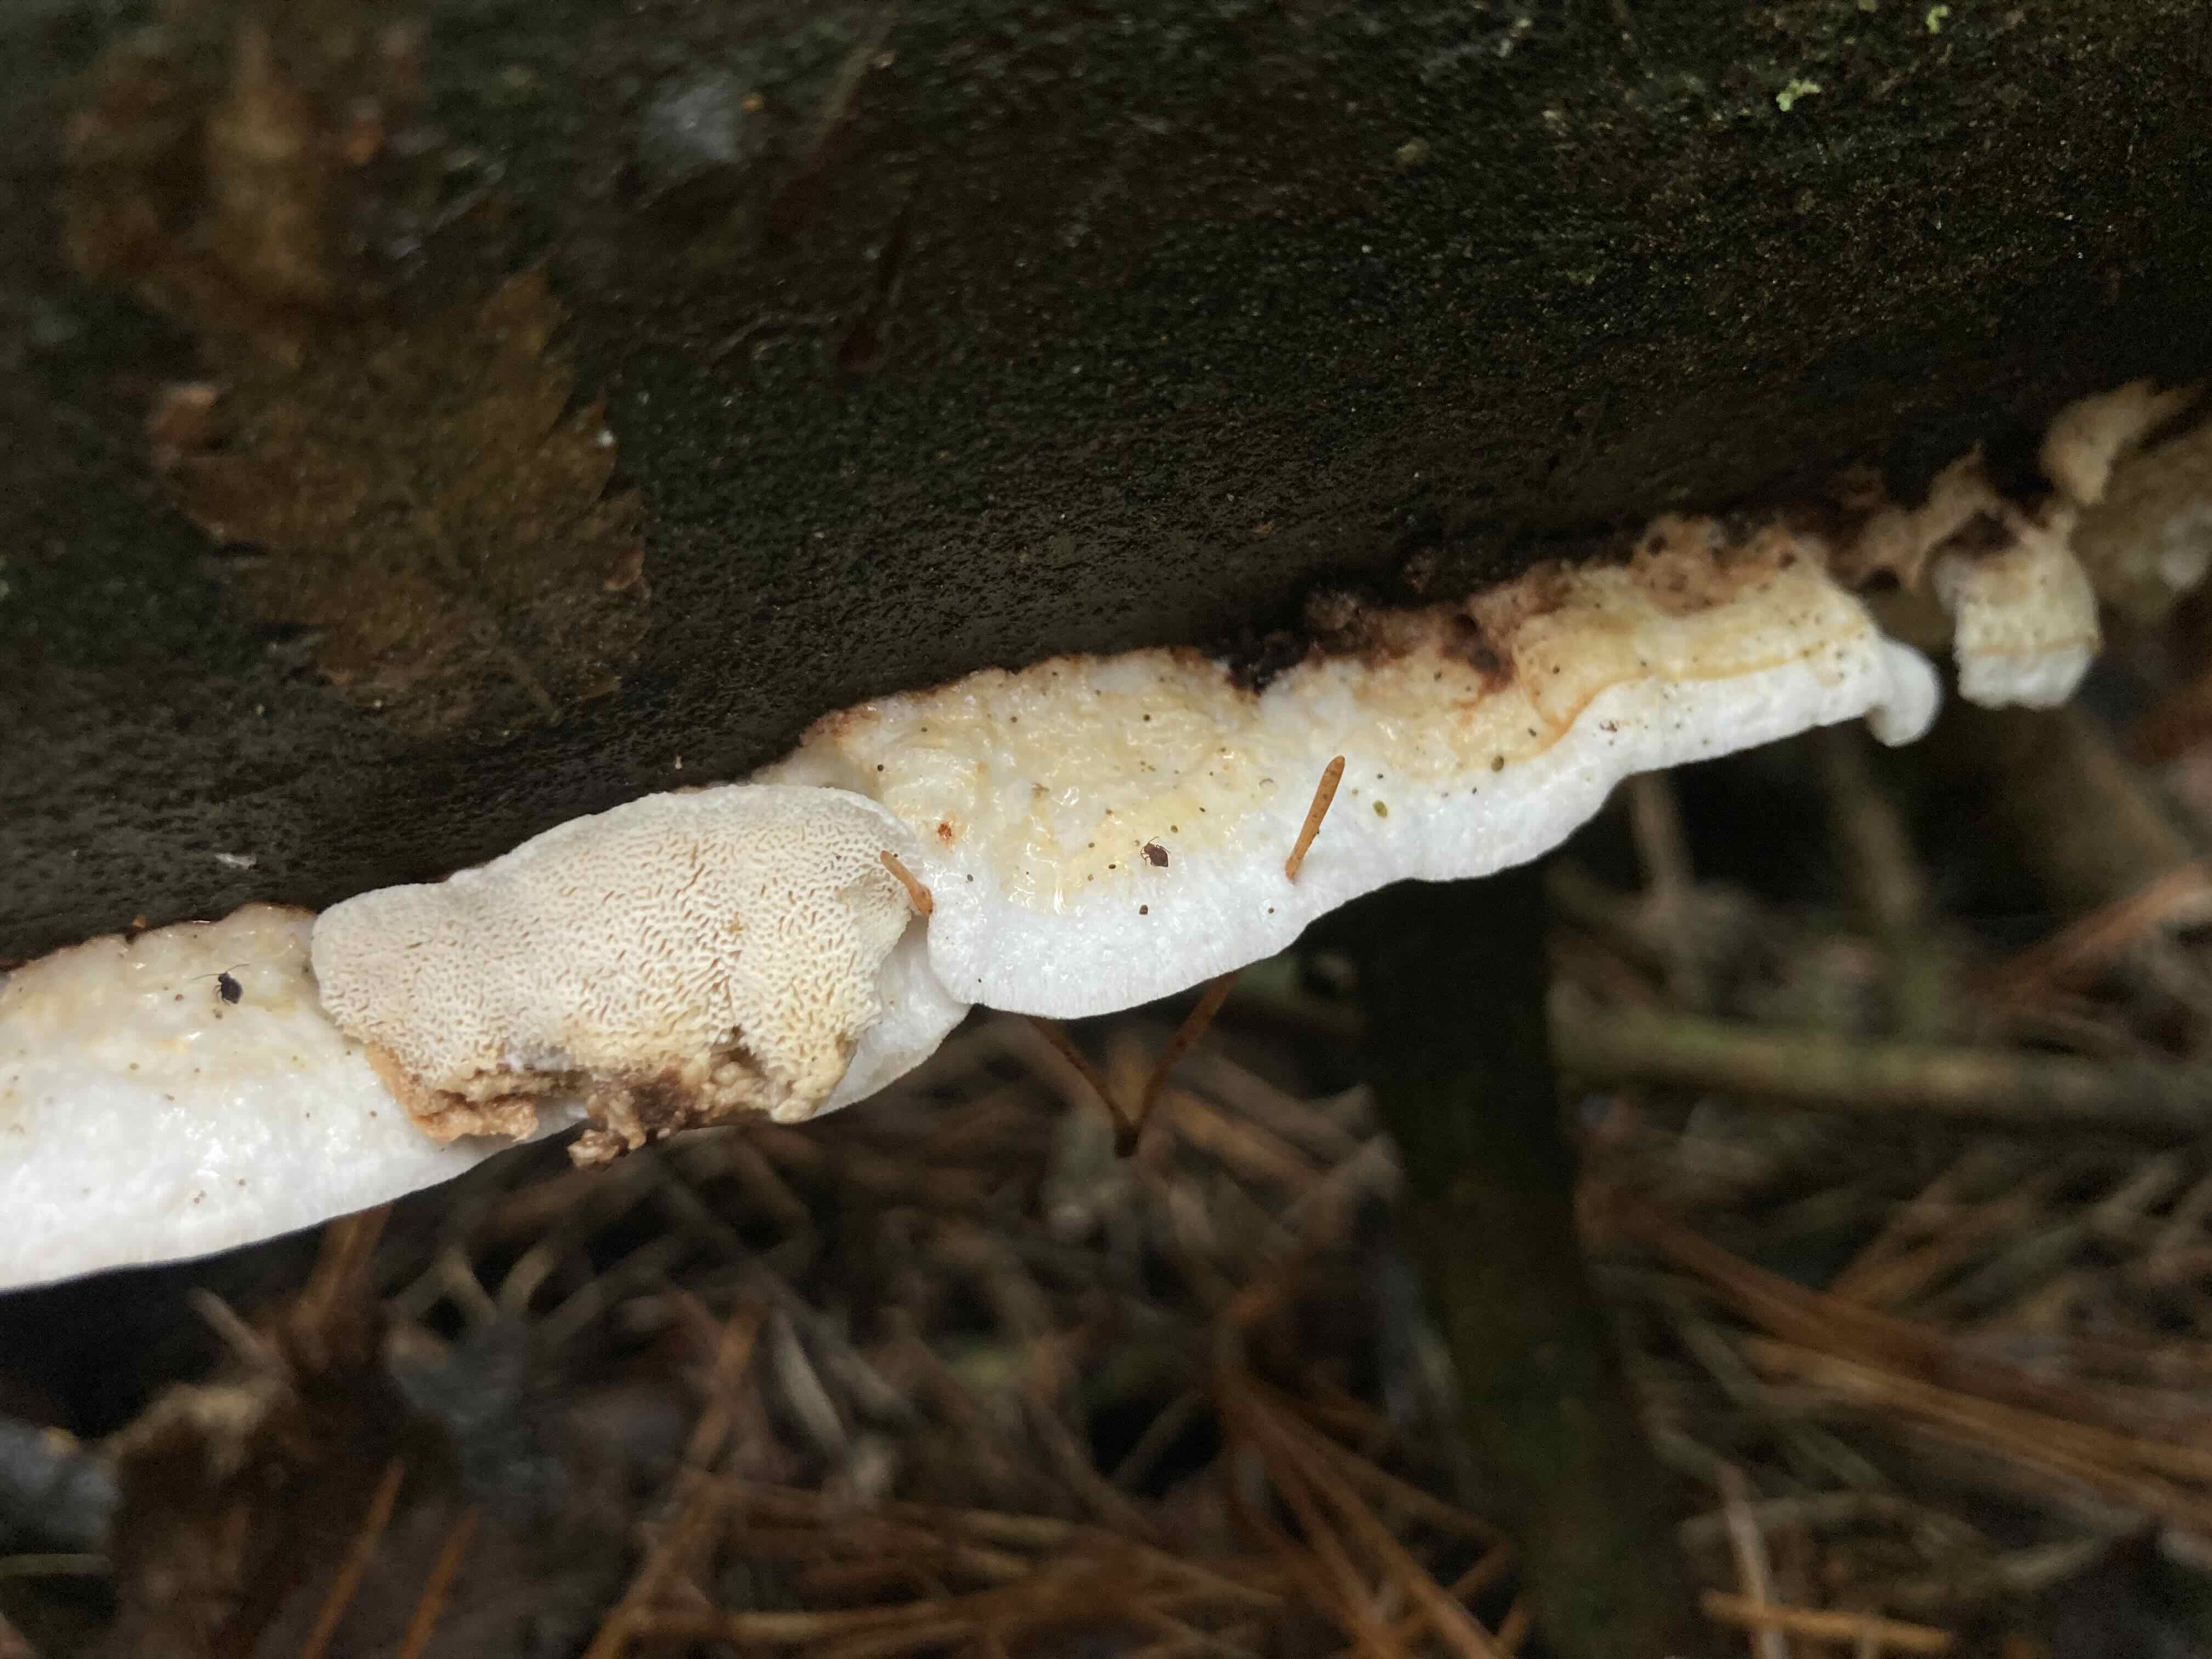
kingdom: Fungi
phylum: Basidiomycota
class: Agaricomycetes
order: Polyporales
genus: Fuscopostia
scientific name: Fuscopostia leucomallella
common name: gulbrun kødporesvamp
